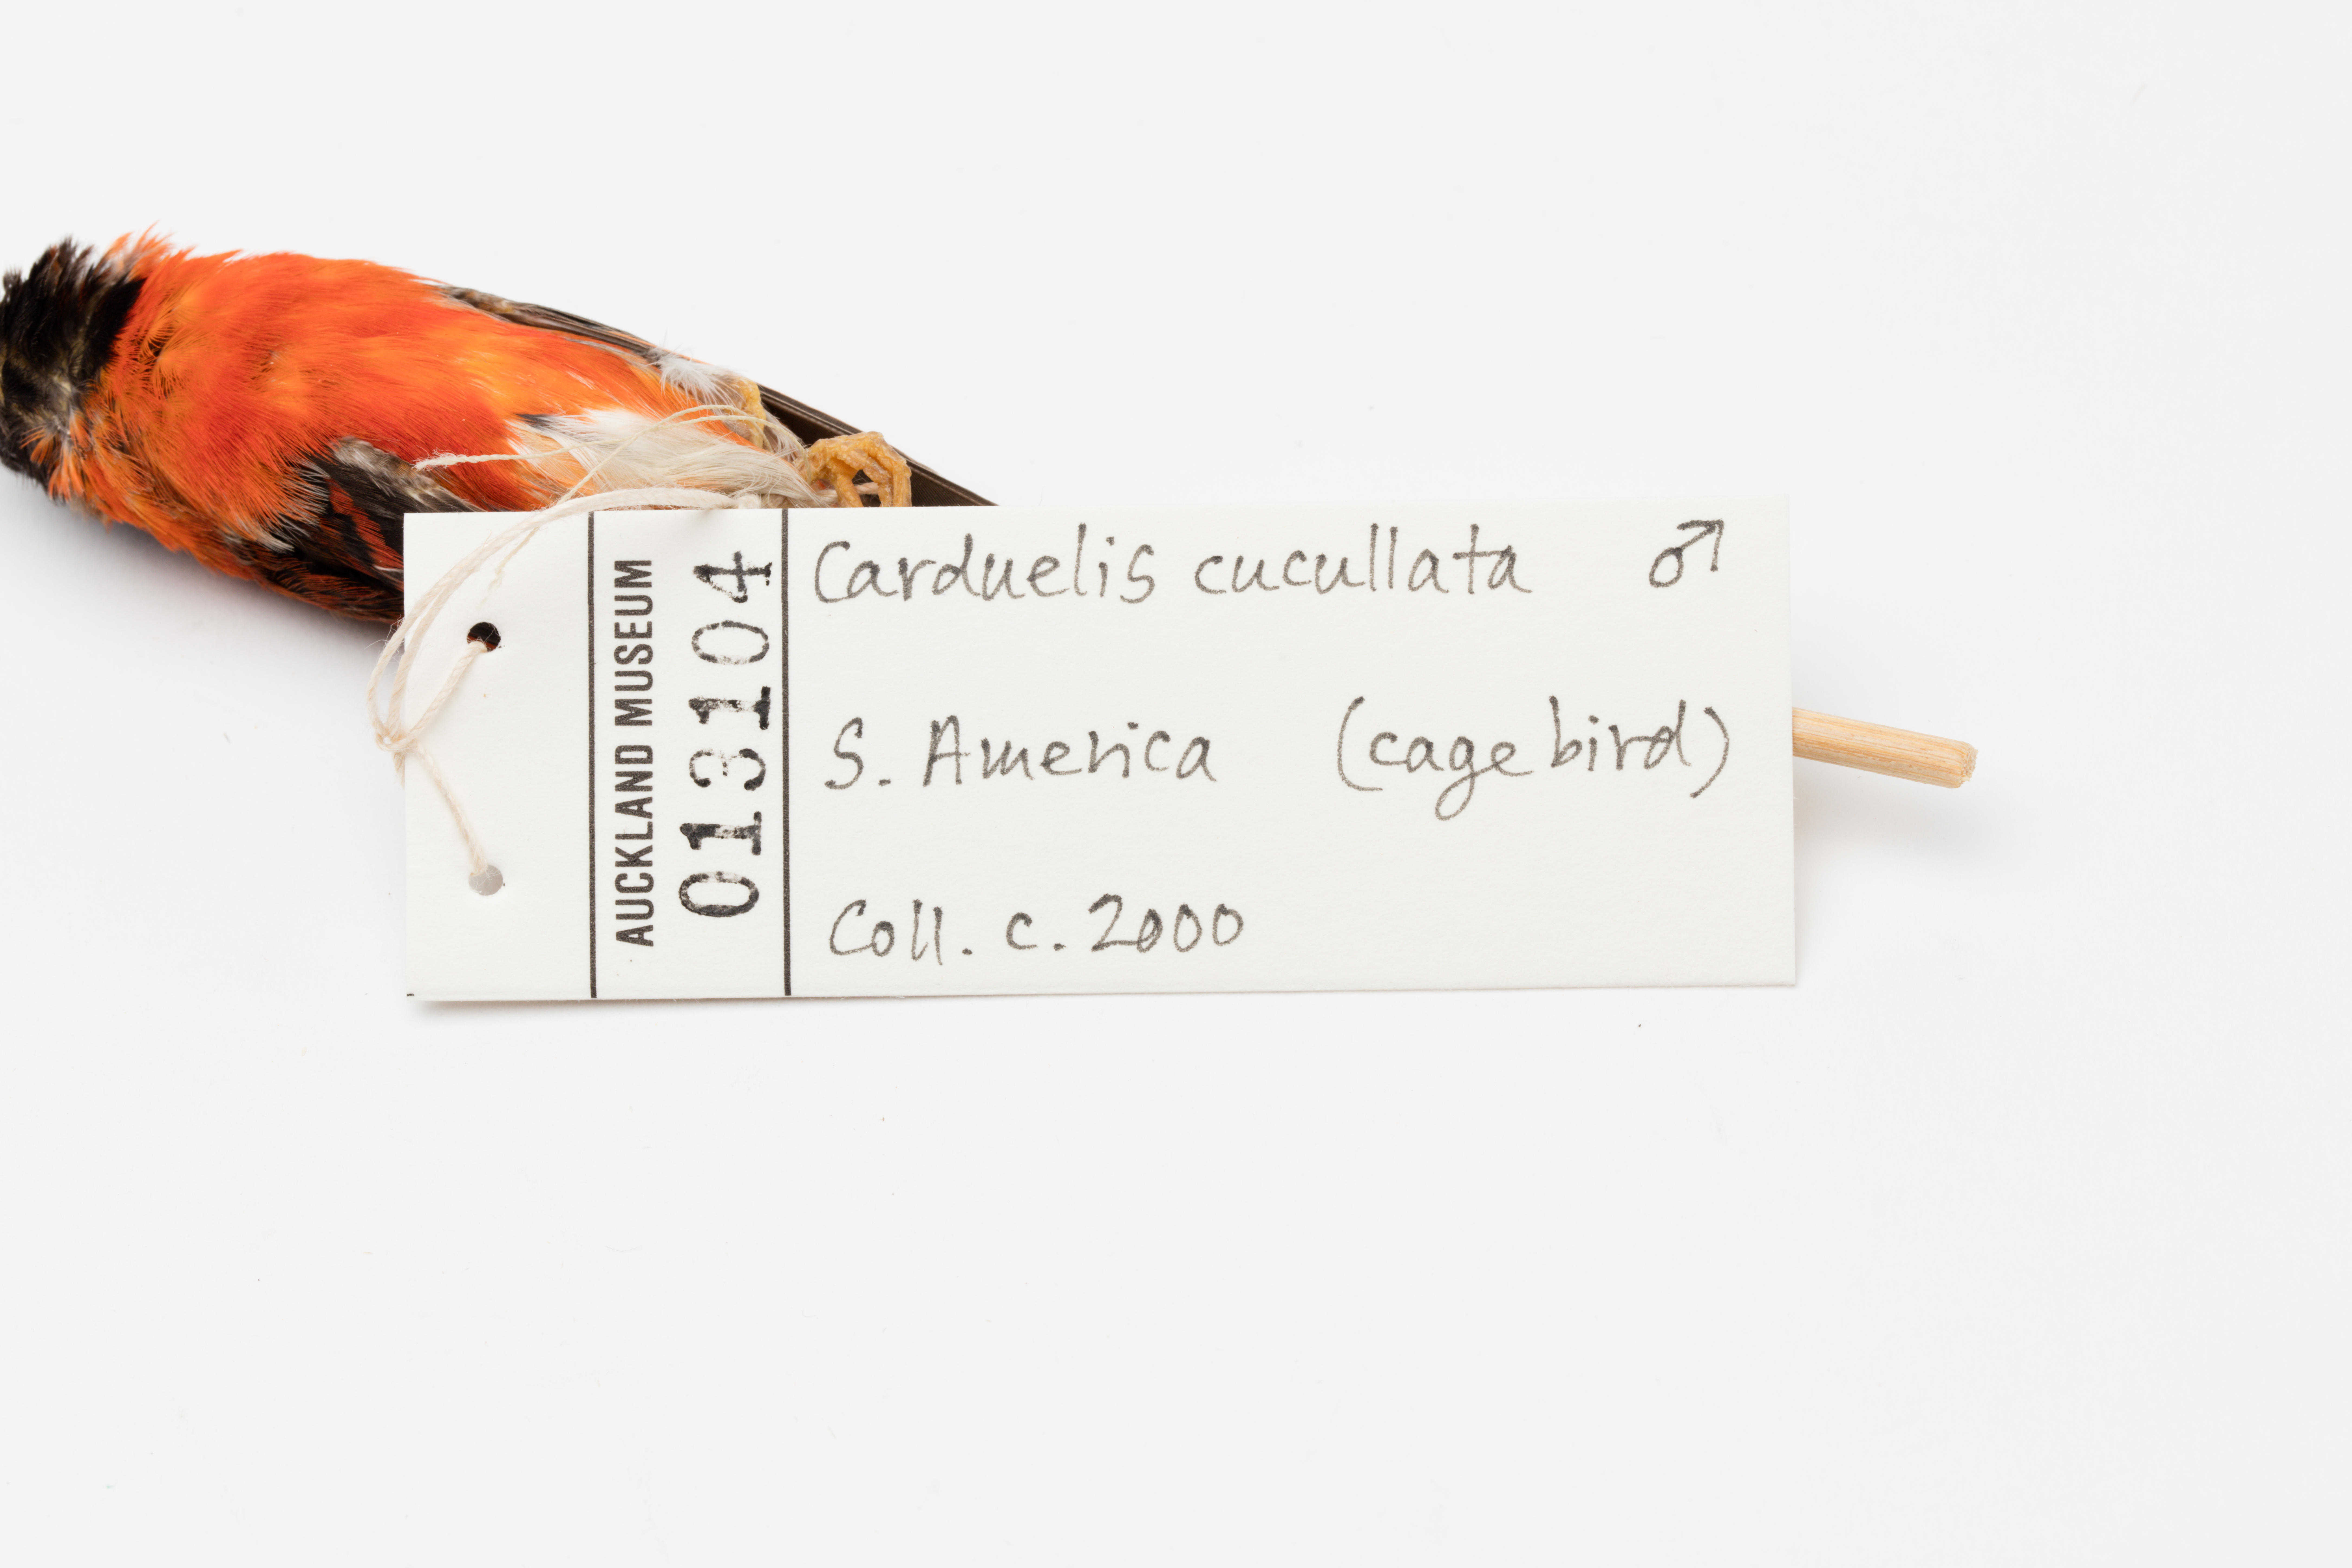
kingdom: Animalia
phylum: Chordata
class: Aves
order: Passeriformes
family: Fringillidae
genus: Spinus
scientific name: Spinus cucullatus
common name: Red siskin
